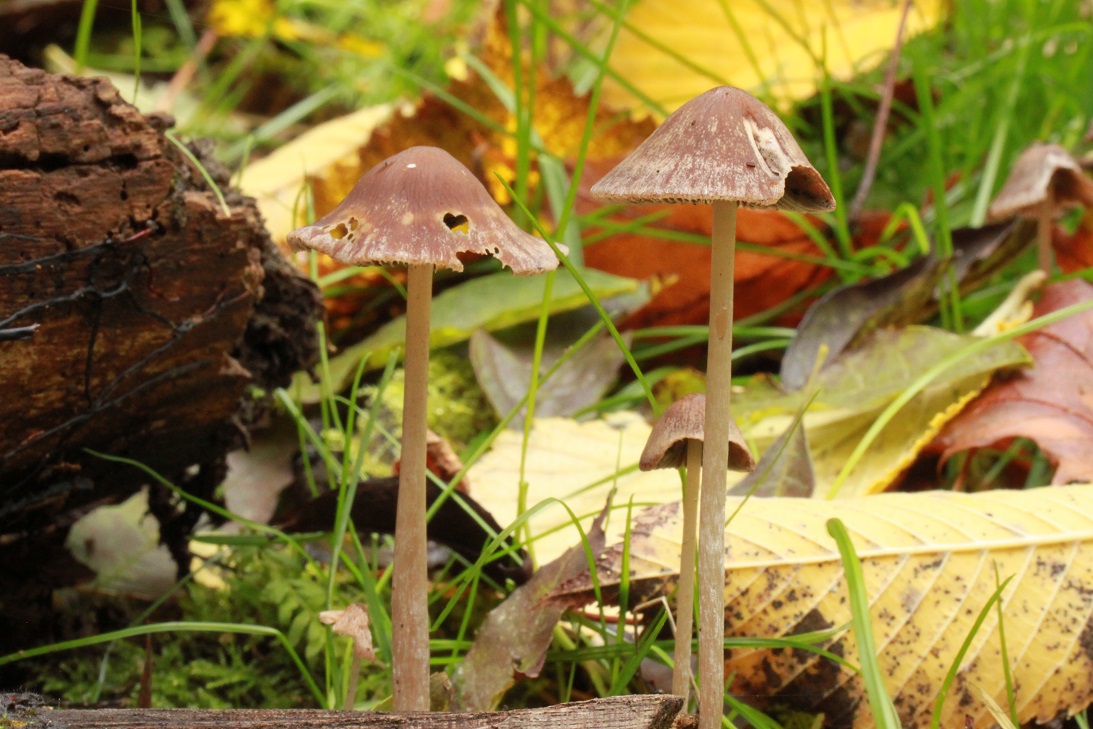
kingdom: Fungi
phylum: Basidiomycota
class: Agaricomycetes
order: Agaricales
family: Psathyrellaceae
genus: Psathyrella
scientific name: Psathyrella pseudogracilis
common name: slank mørkhat
